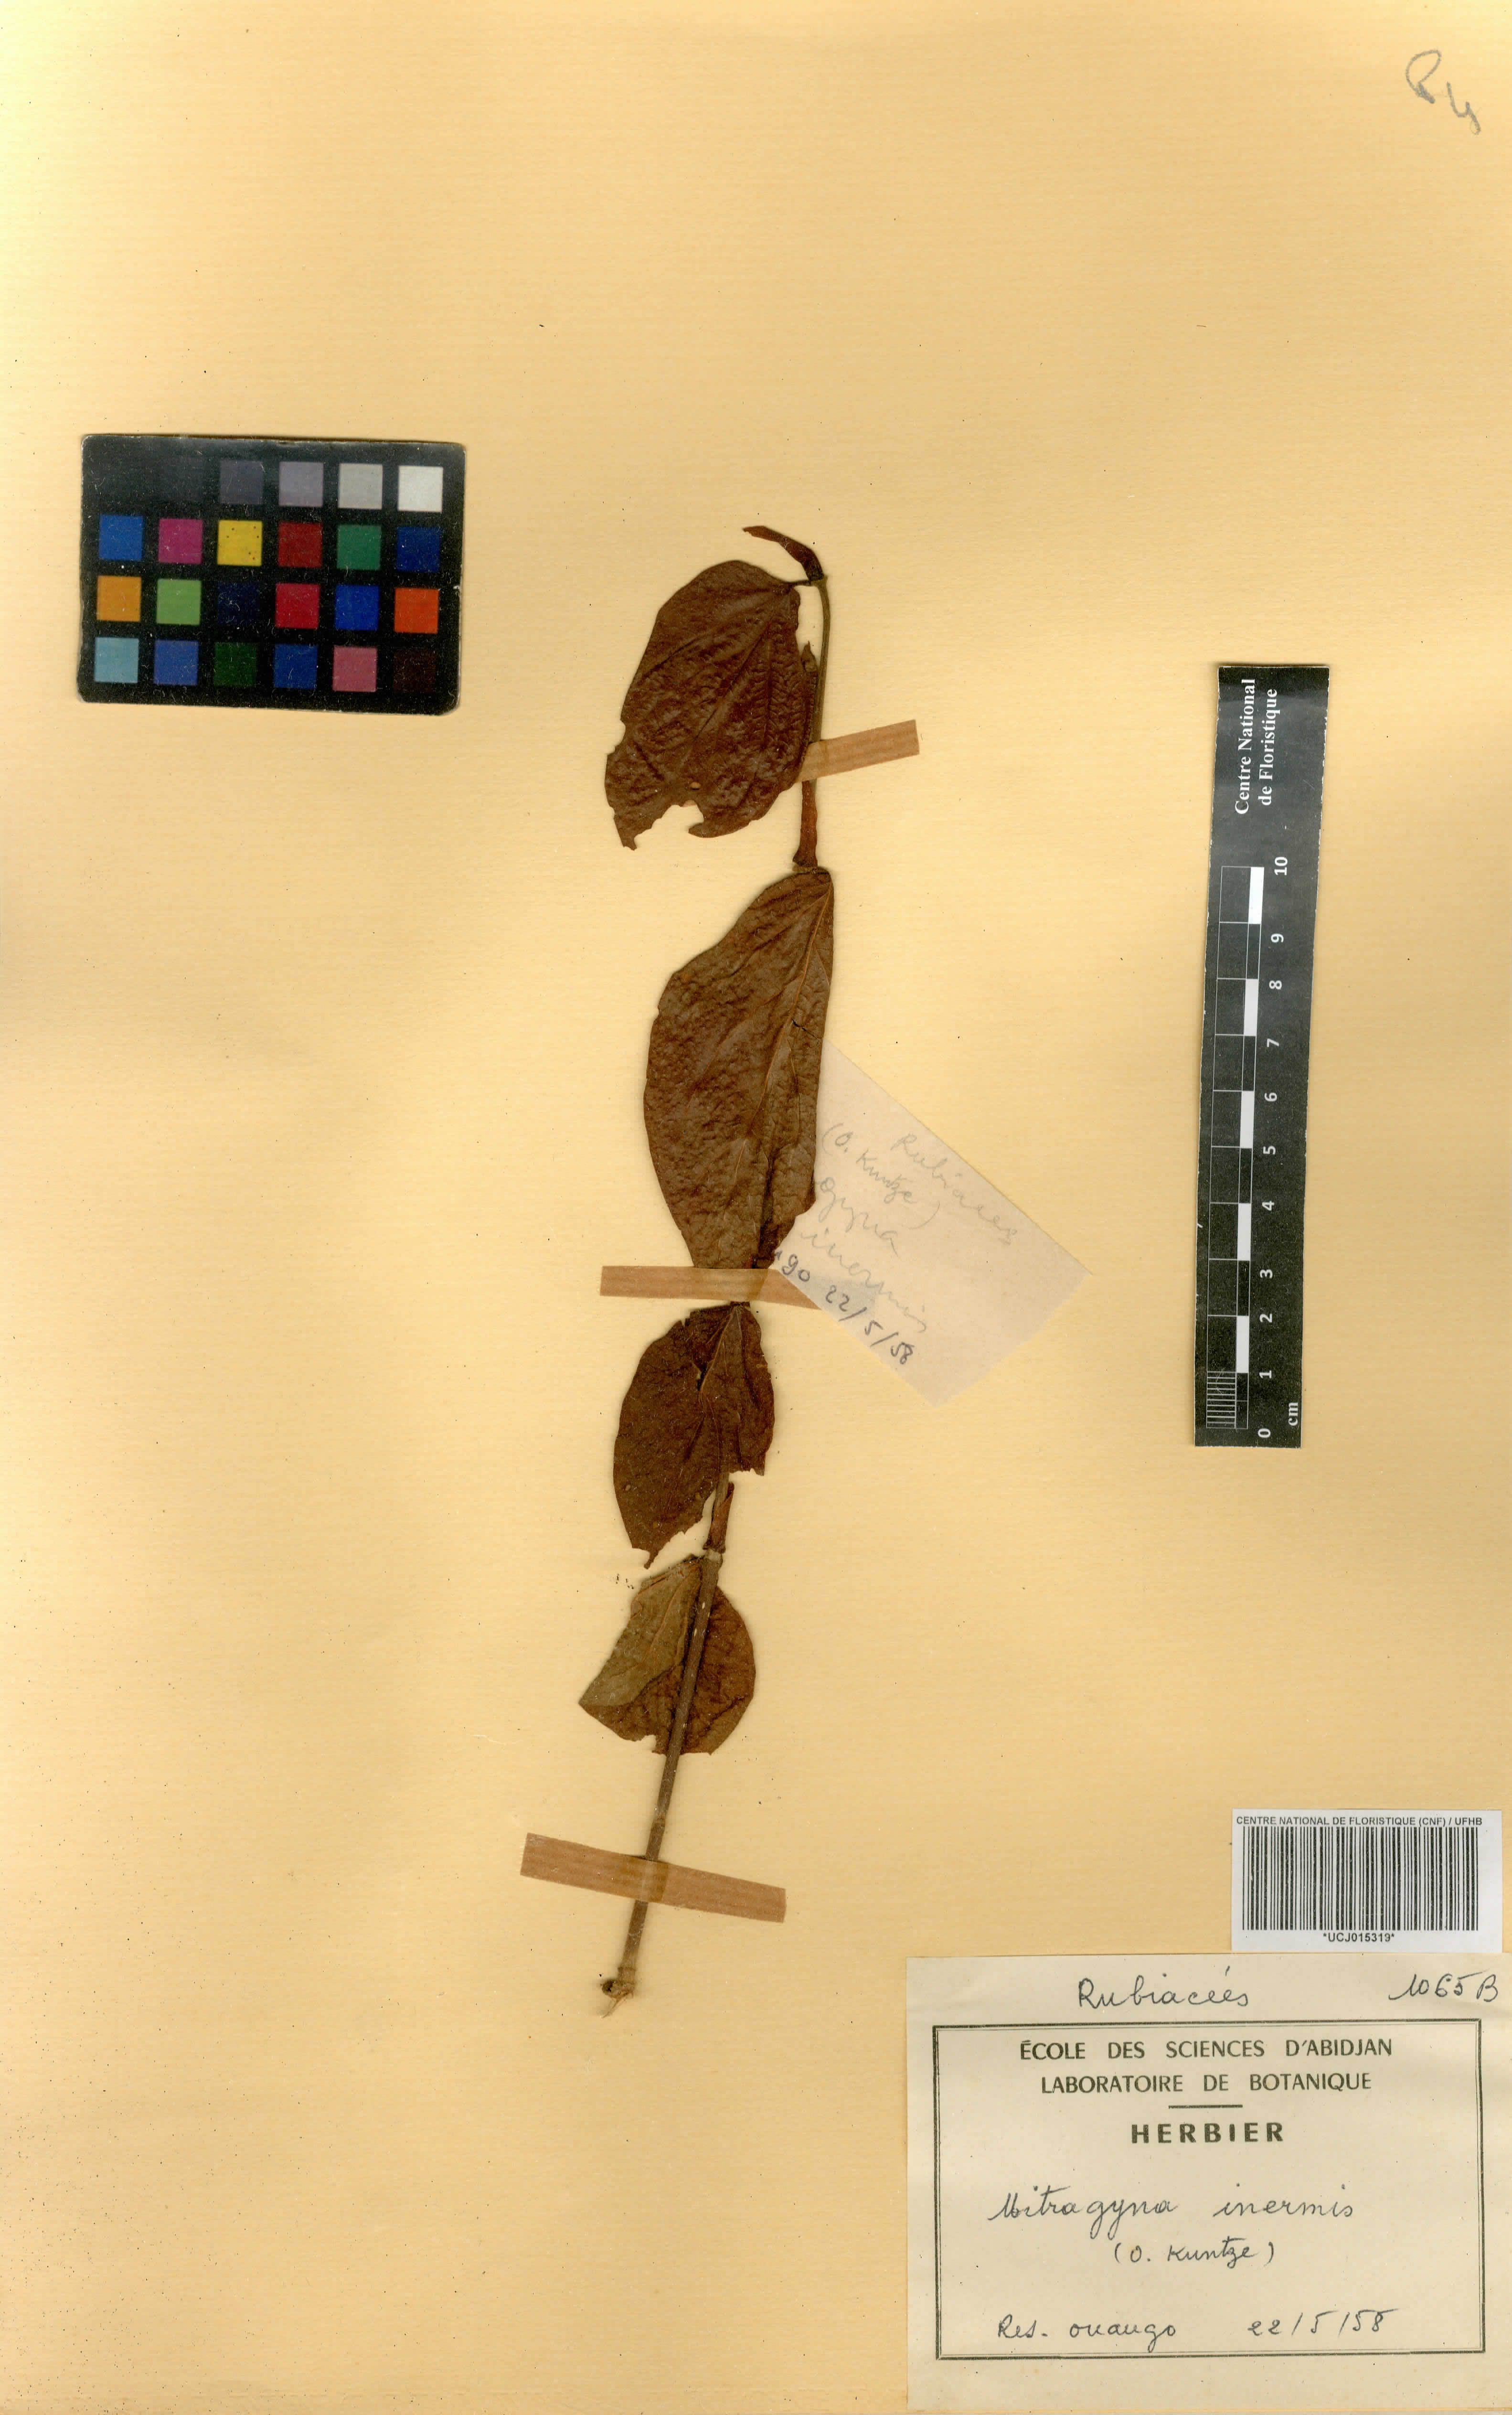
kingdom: Plantae
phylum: Tracheophyta
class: Magnoliopsida
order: Gentianales
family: Rubiaceae
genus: Mitragyna
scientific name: Mitragyna inermis
